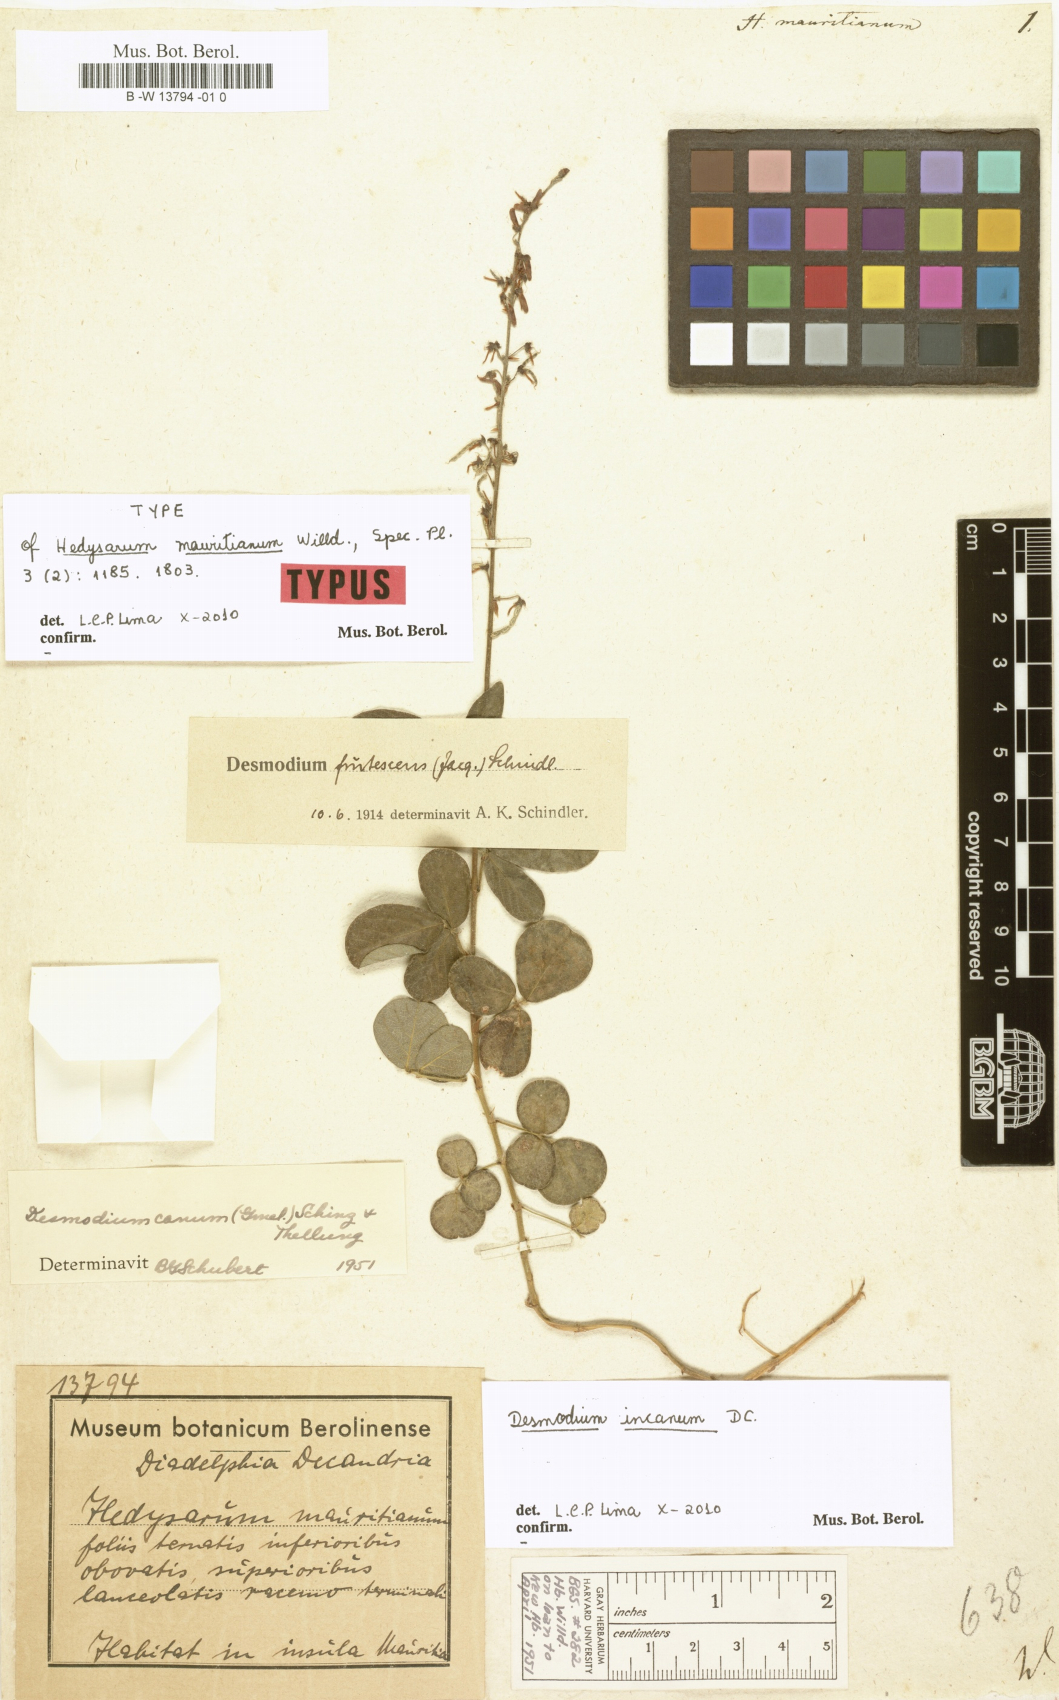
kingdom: Plantae
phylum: Tracheophyta
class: Magnoliopsida
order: Fabales
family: Fabaceae
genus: Desmodium
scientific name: Desmodium incanum
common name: Tickclover
